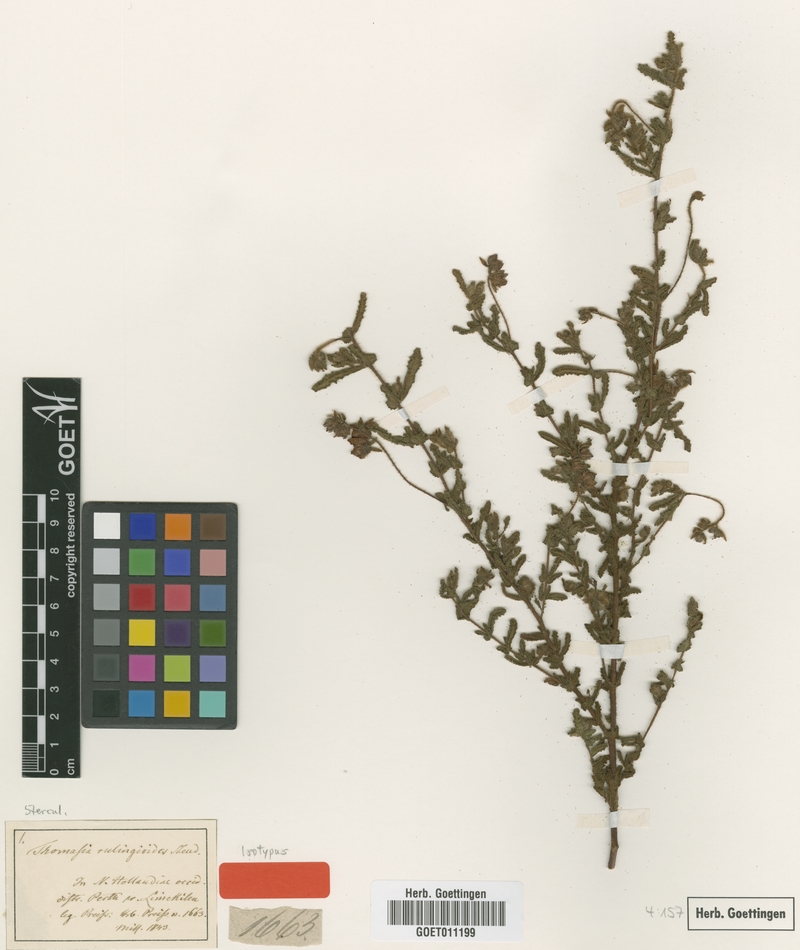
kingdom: Plantae
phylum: Tracheophyta
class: Magnoliopsida
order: Malvales
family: Malvaceae
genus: Thomasia
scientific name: Thomasia rulingioides
